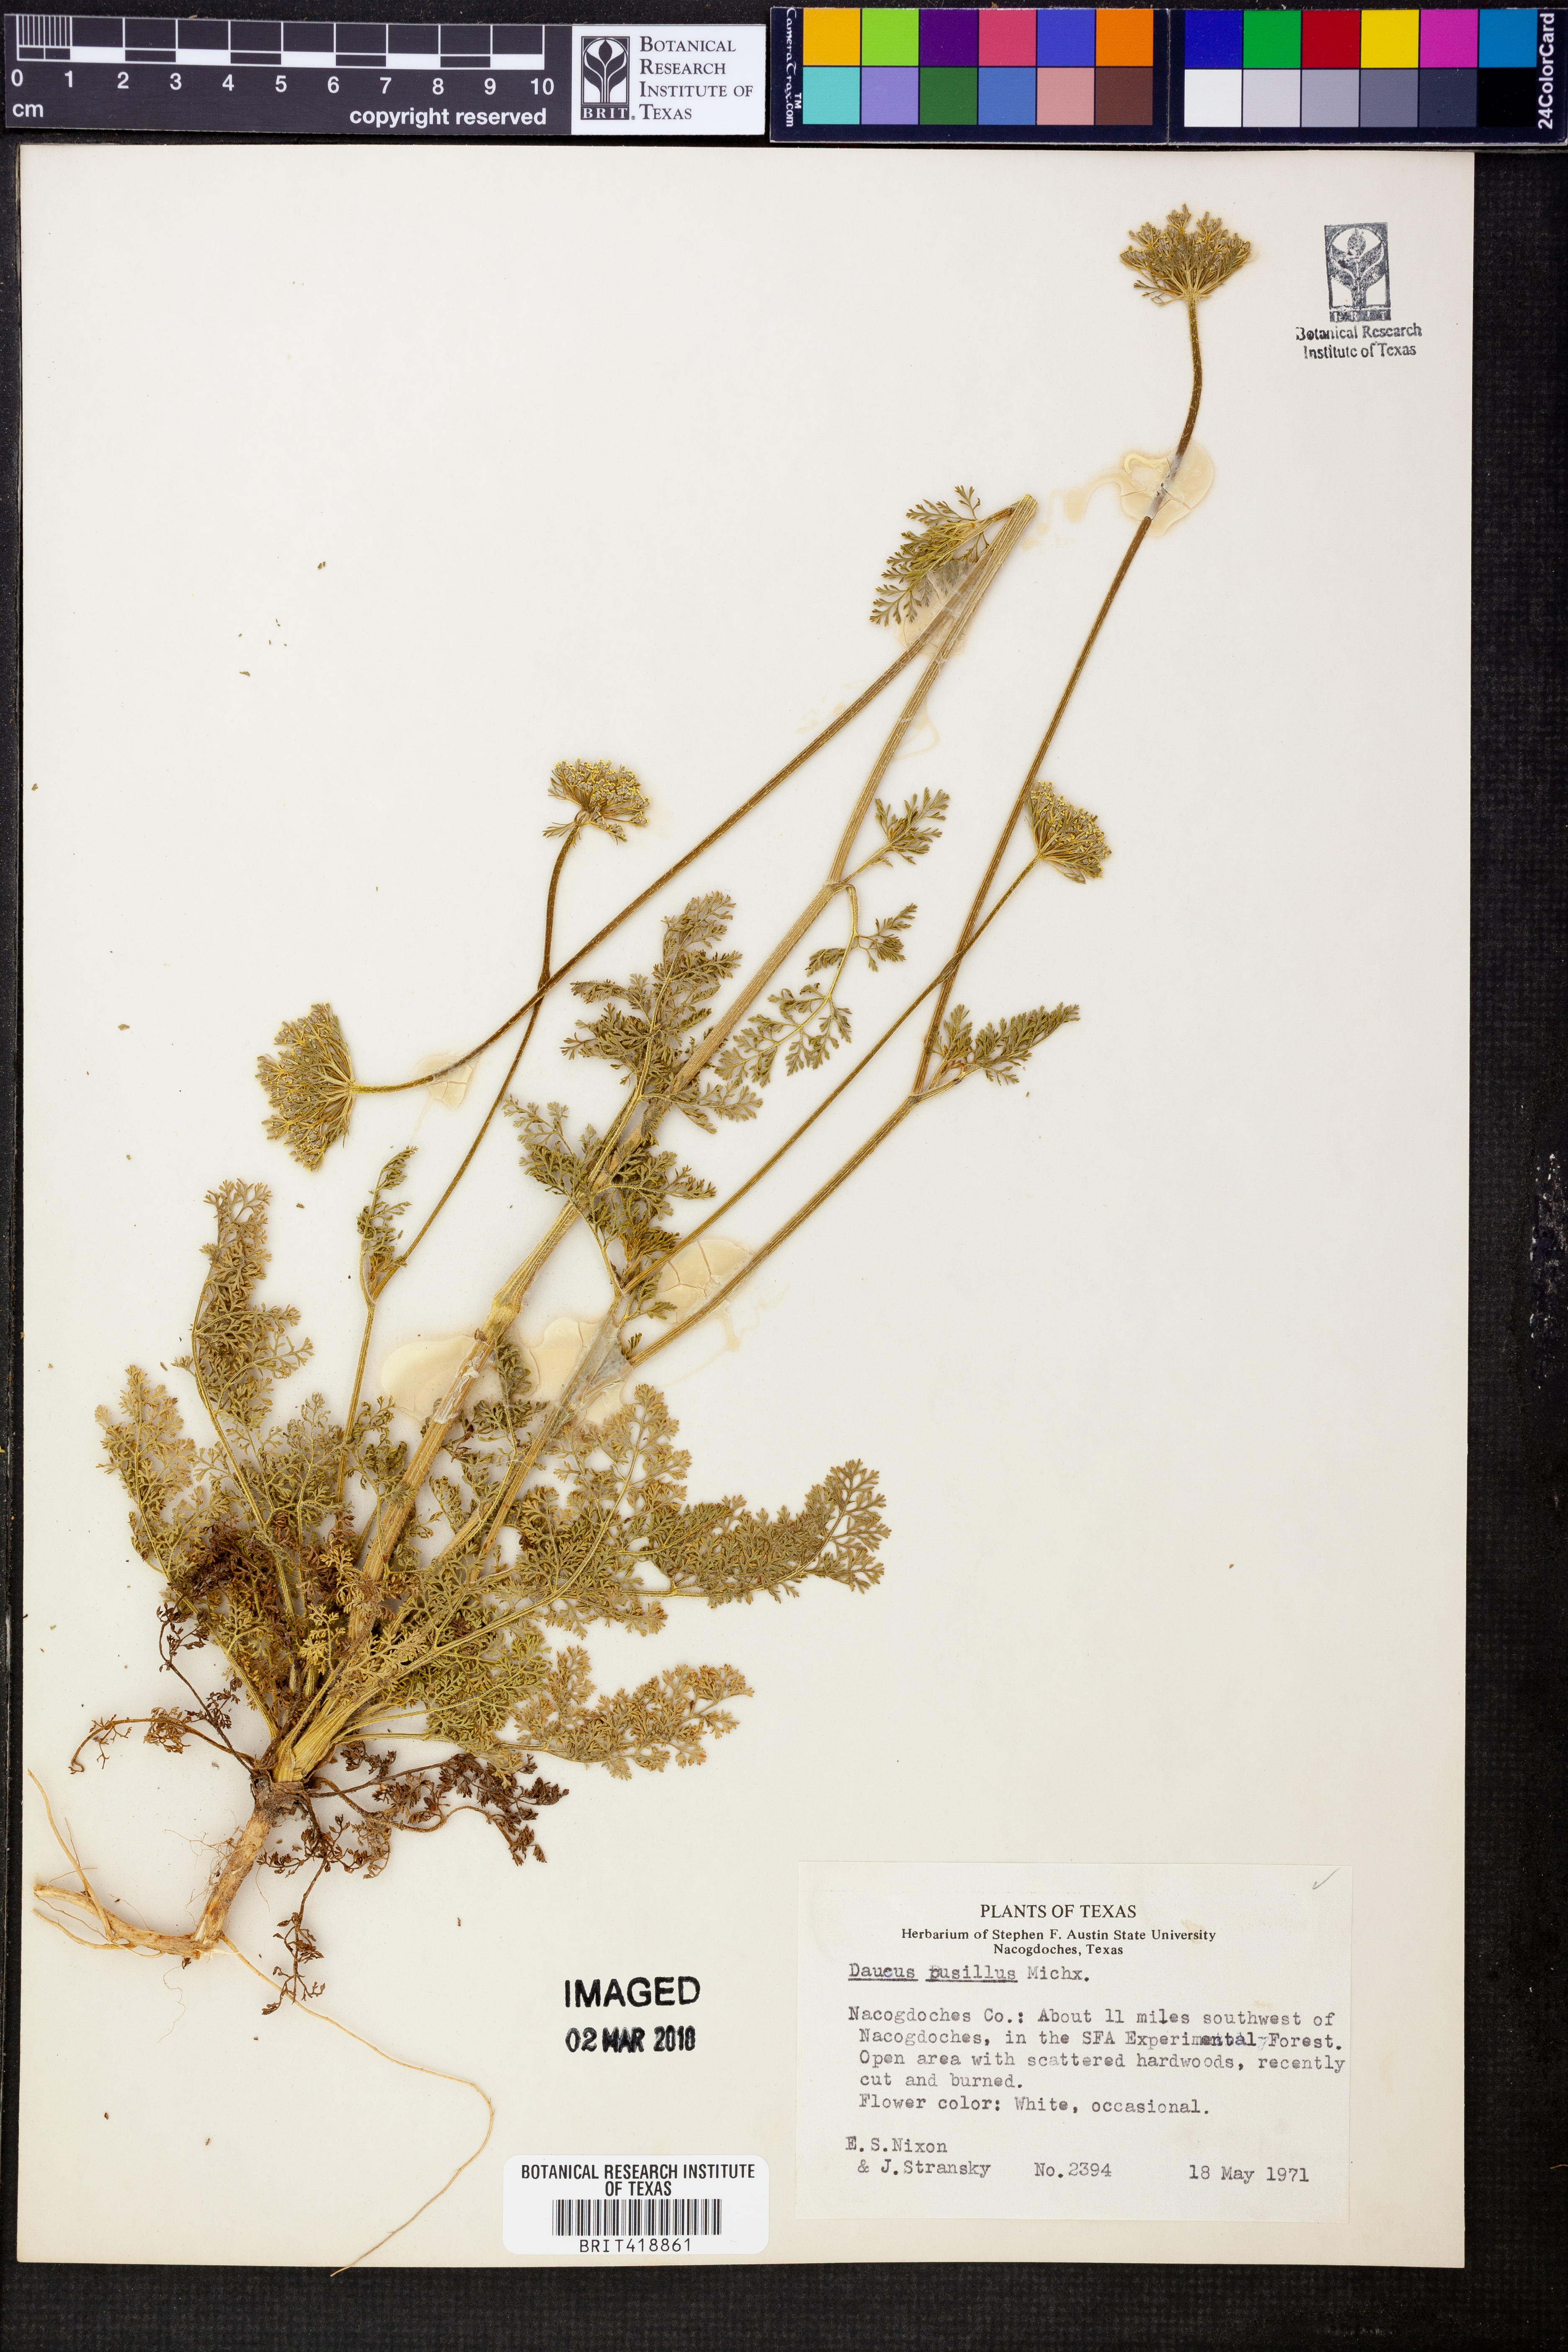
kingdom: Plantae
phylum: Tracheophyta
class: Magnoliopsida
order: Apiales
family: Apiaceae
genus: Daucus
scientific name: Daucus pusillus
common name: Southwest wild carrot
